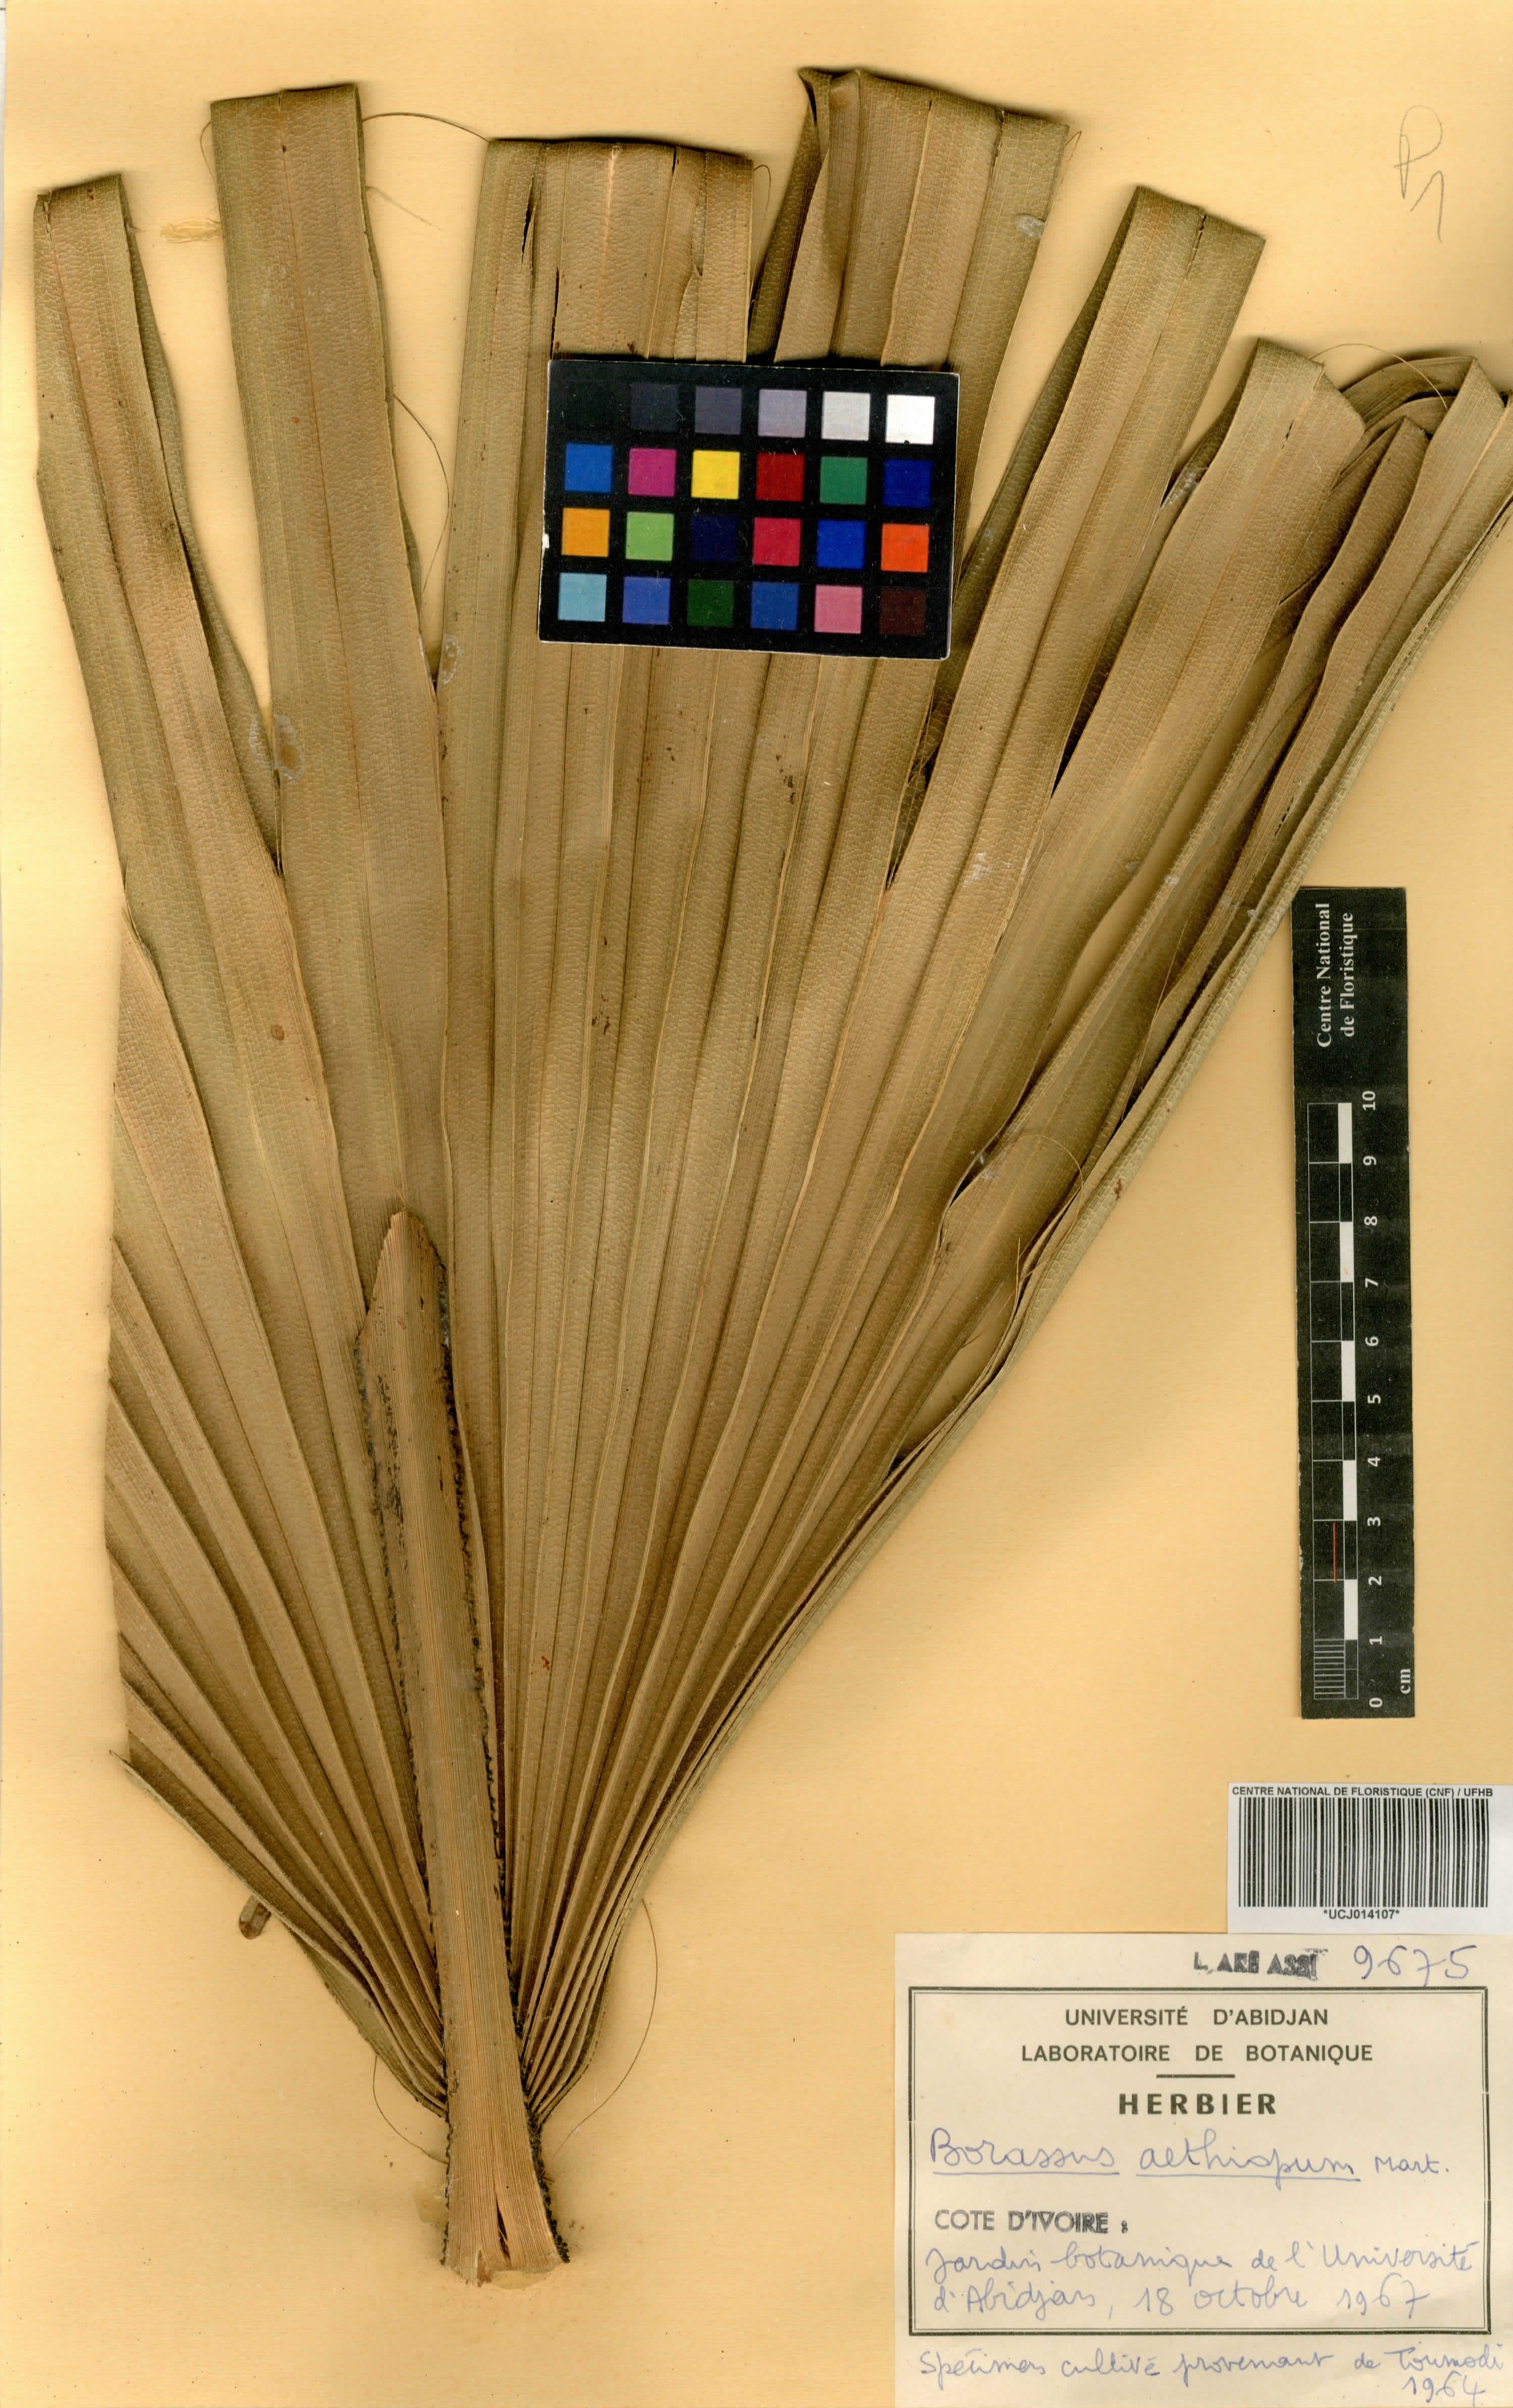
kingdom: Plantae
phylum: Tracheophyta
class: Liliopsida
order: Arecales
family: Arecaceae
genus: Borassus
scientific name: Borassus aethiopum
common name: Elephant palm
